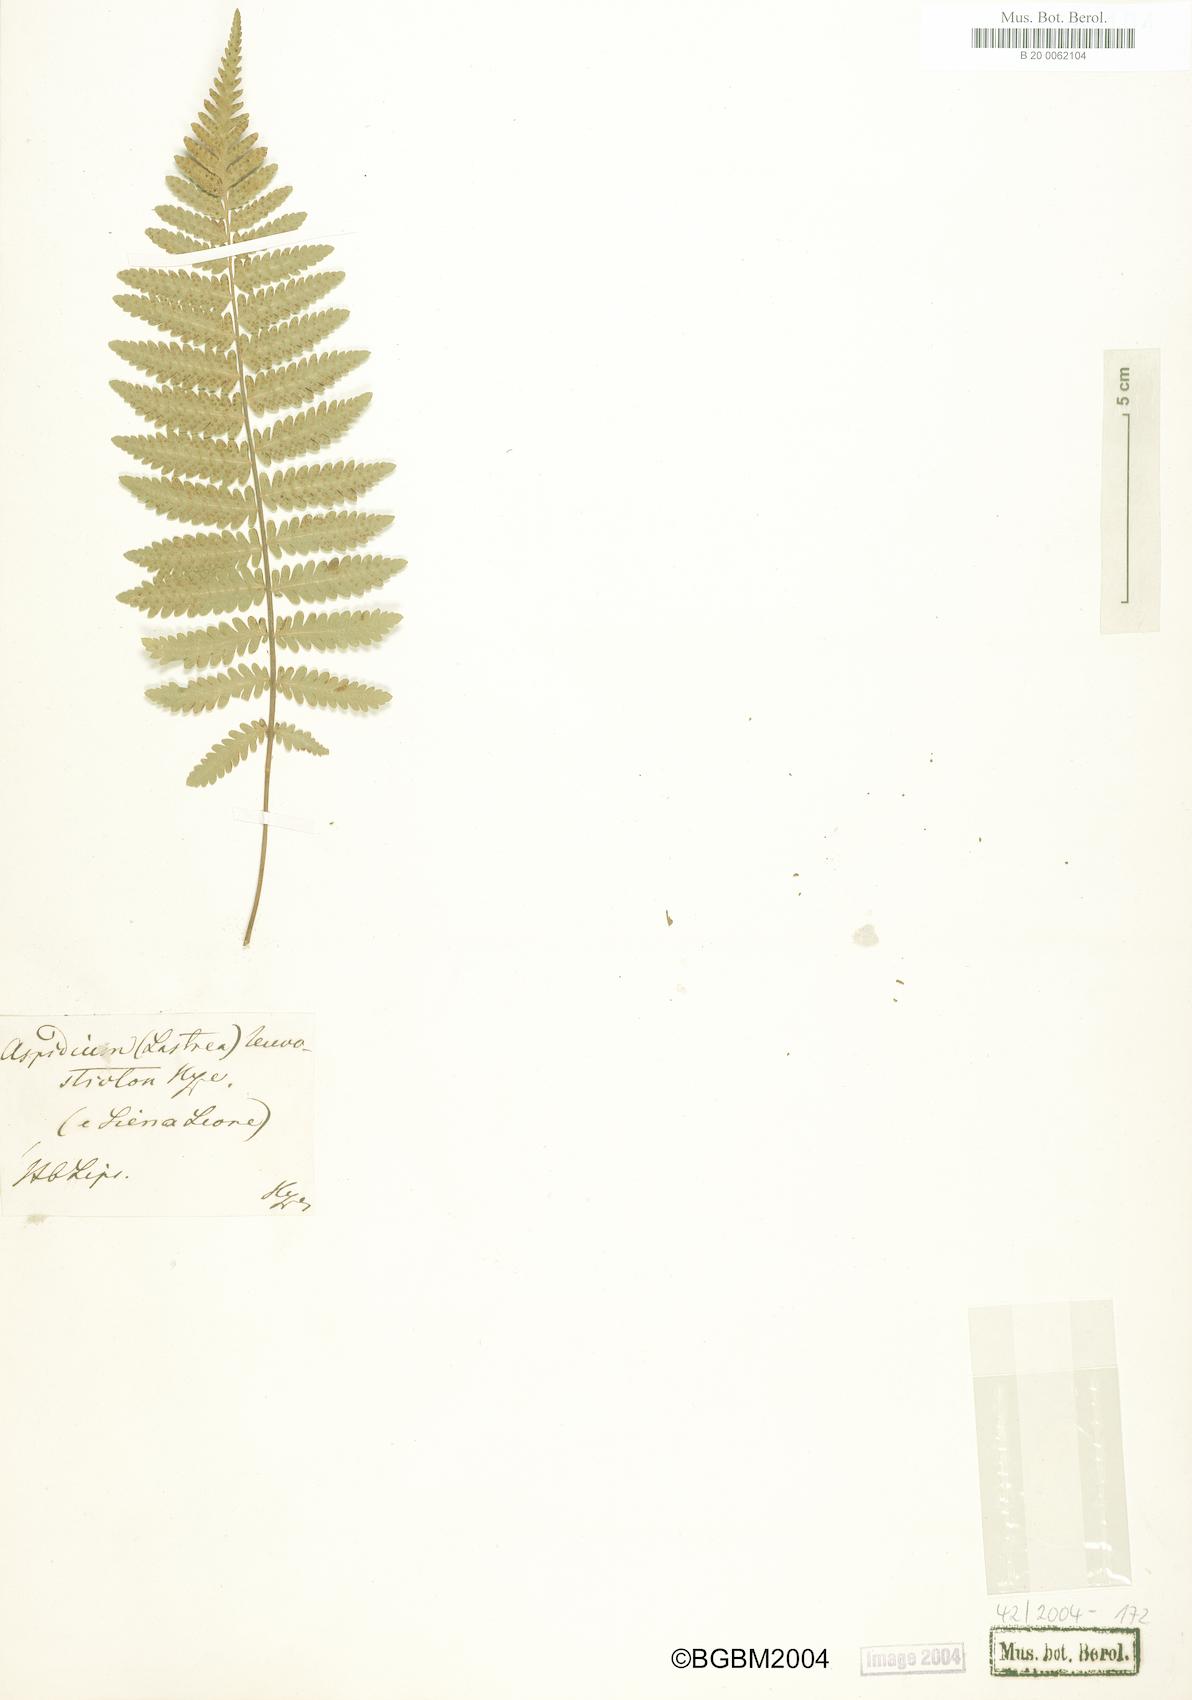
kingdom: Plantae
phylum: Tracheophyta
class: Polypodiopsida
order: Polypodiales
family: Tectariaceae
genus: Arthropteris
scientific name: Arthropteris orientalis
